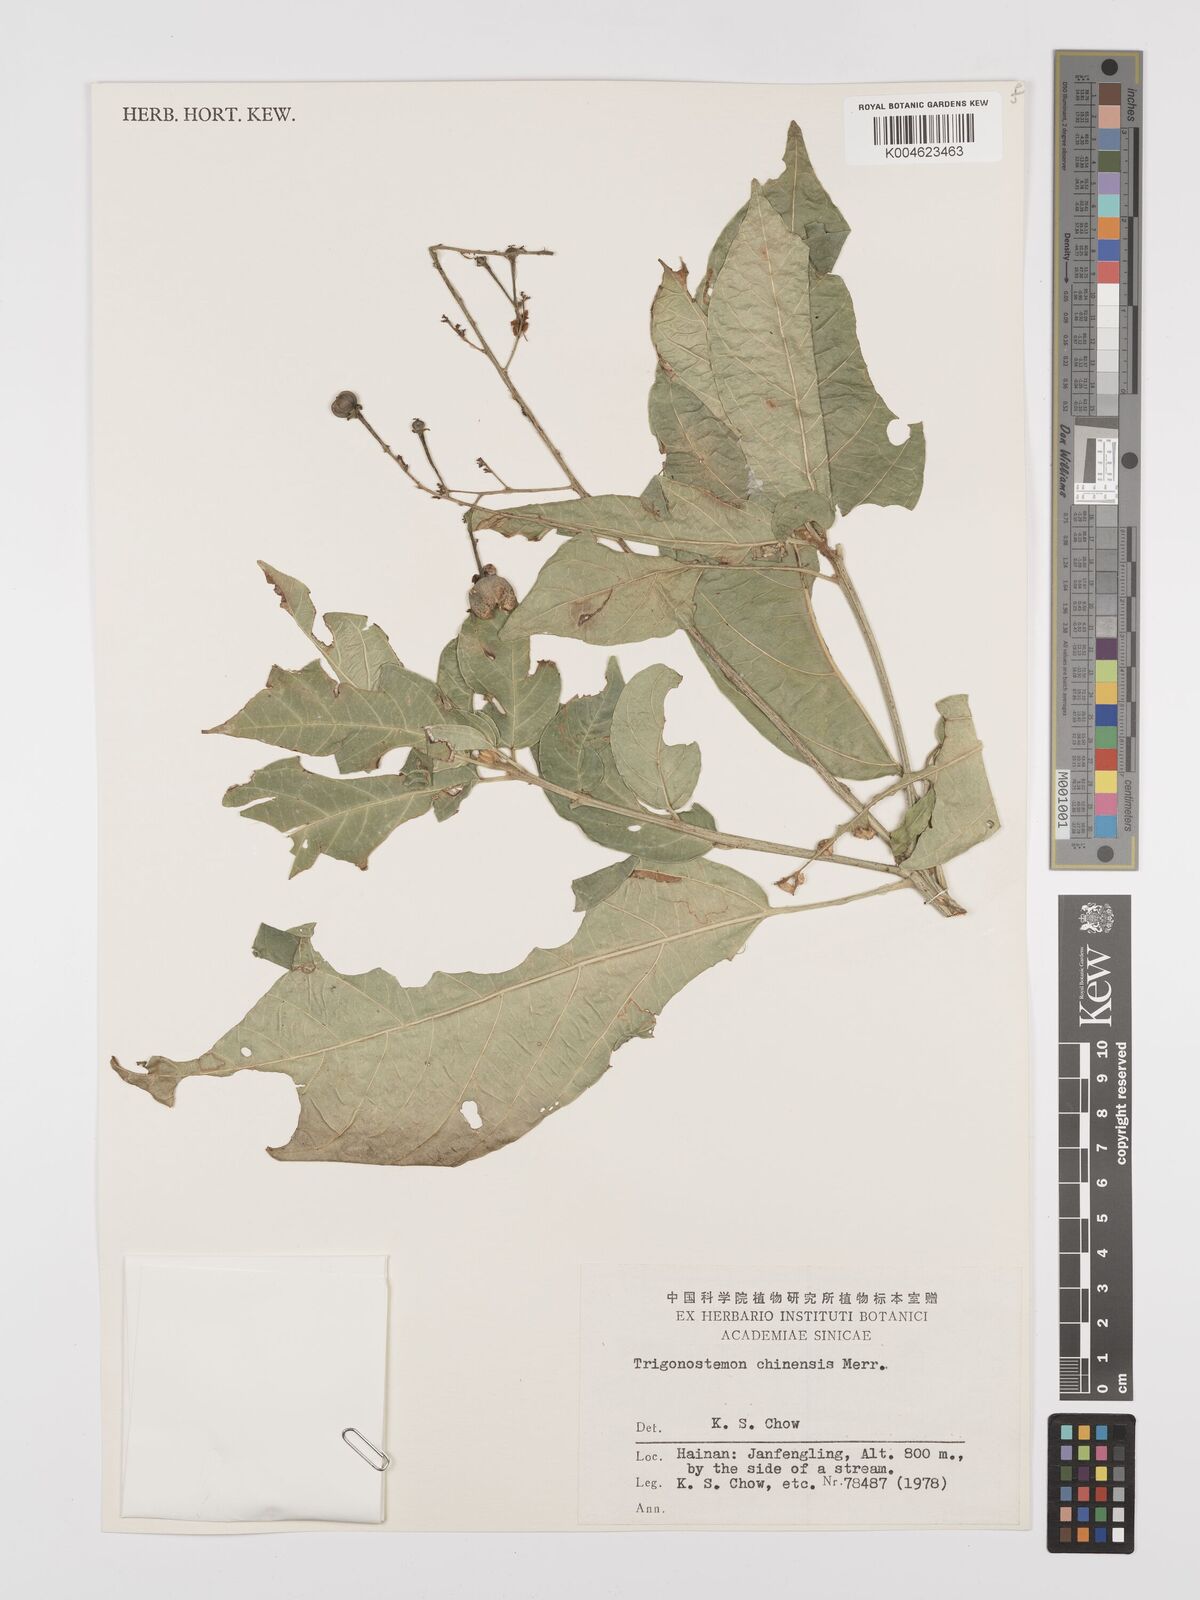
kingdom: Plantae
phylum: Tracheophyta
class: Magnoliopsida
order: Malpighiales
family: Euphorbiaceae
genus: Trigonostemon
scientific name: Trigonostemon viridissimus
